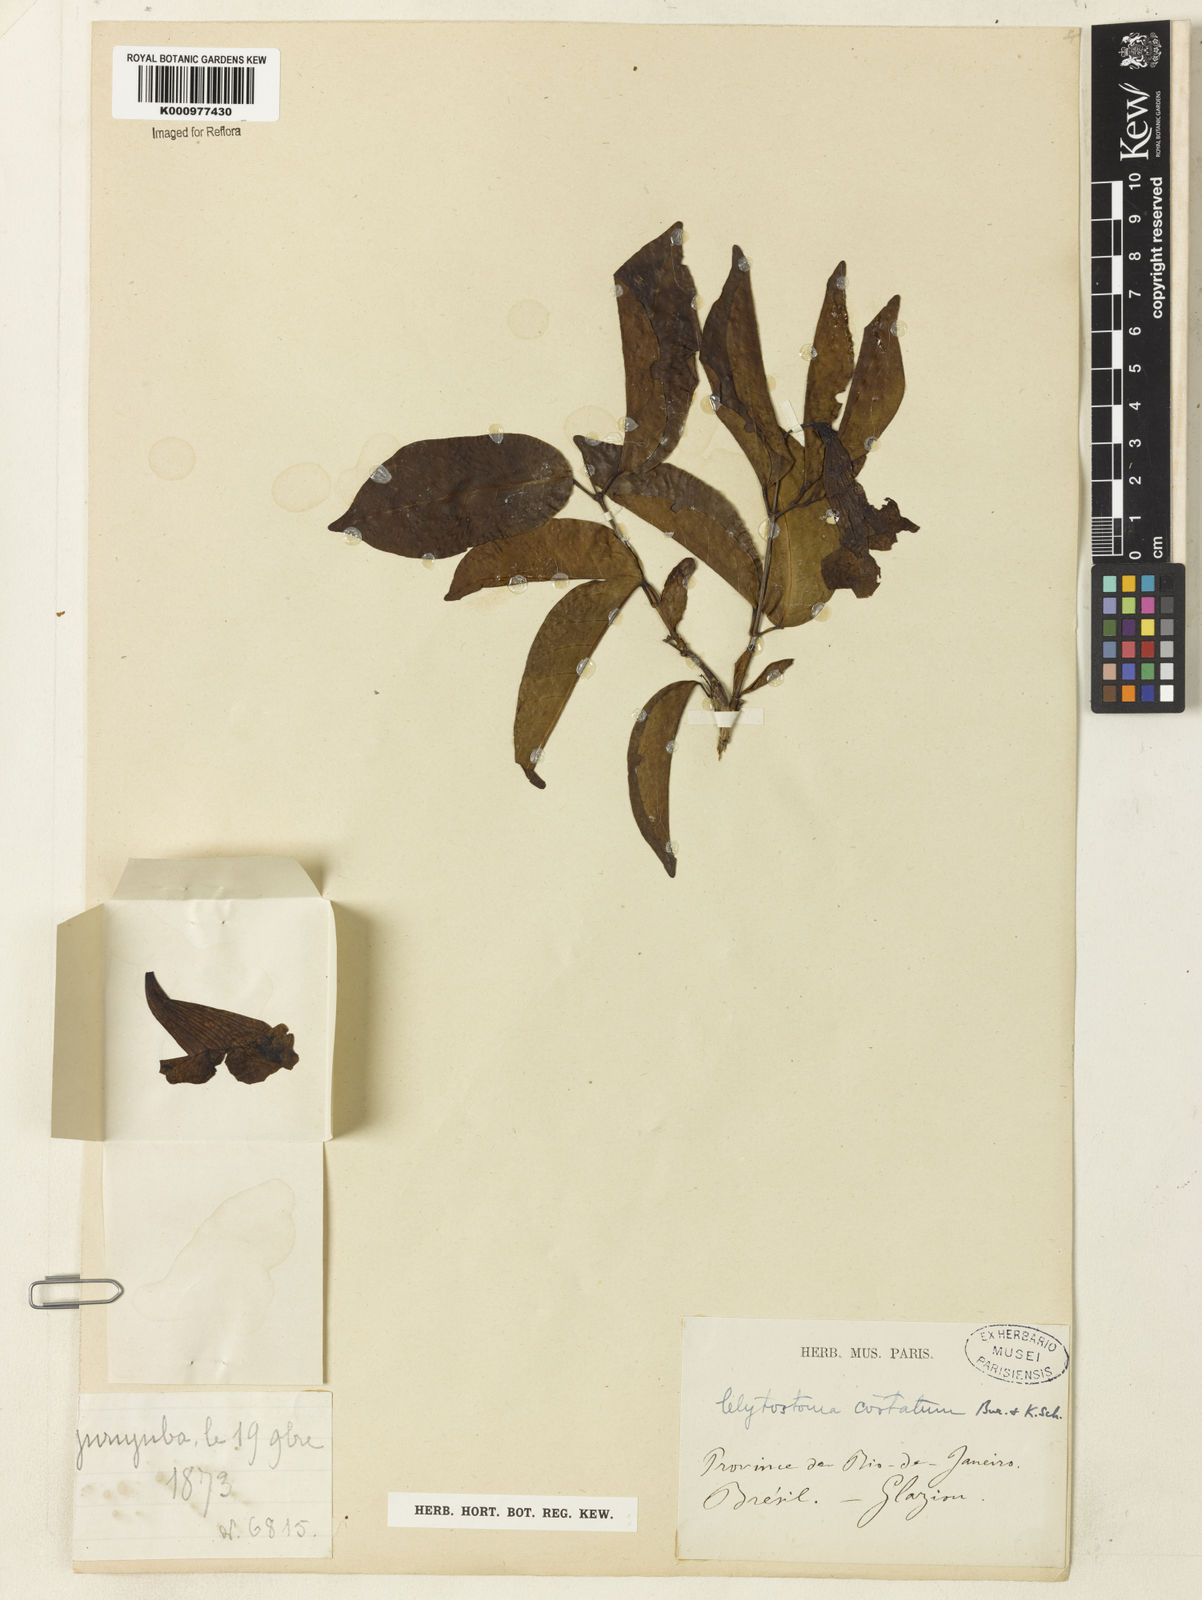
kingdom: Plantae
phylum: Tracheophyta
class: Magnoliopsida
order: Lamiales
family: Bignoniaceae
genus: Bignonia
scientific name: Bignonia costata
